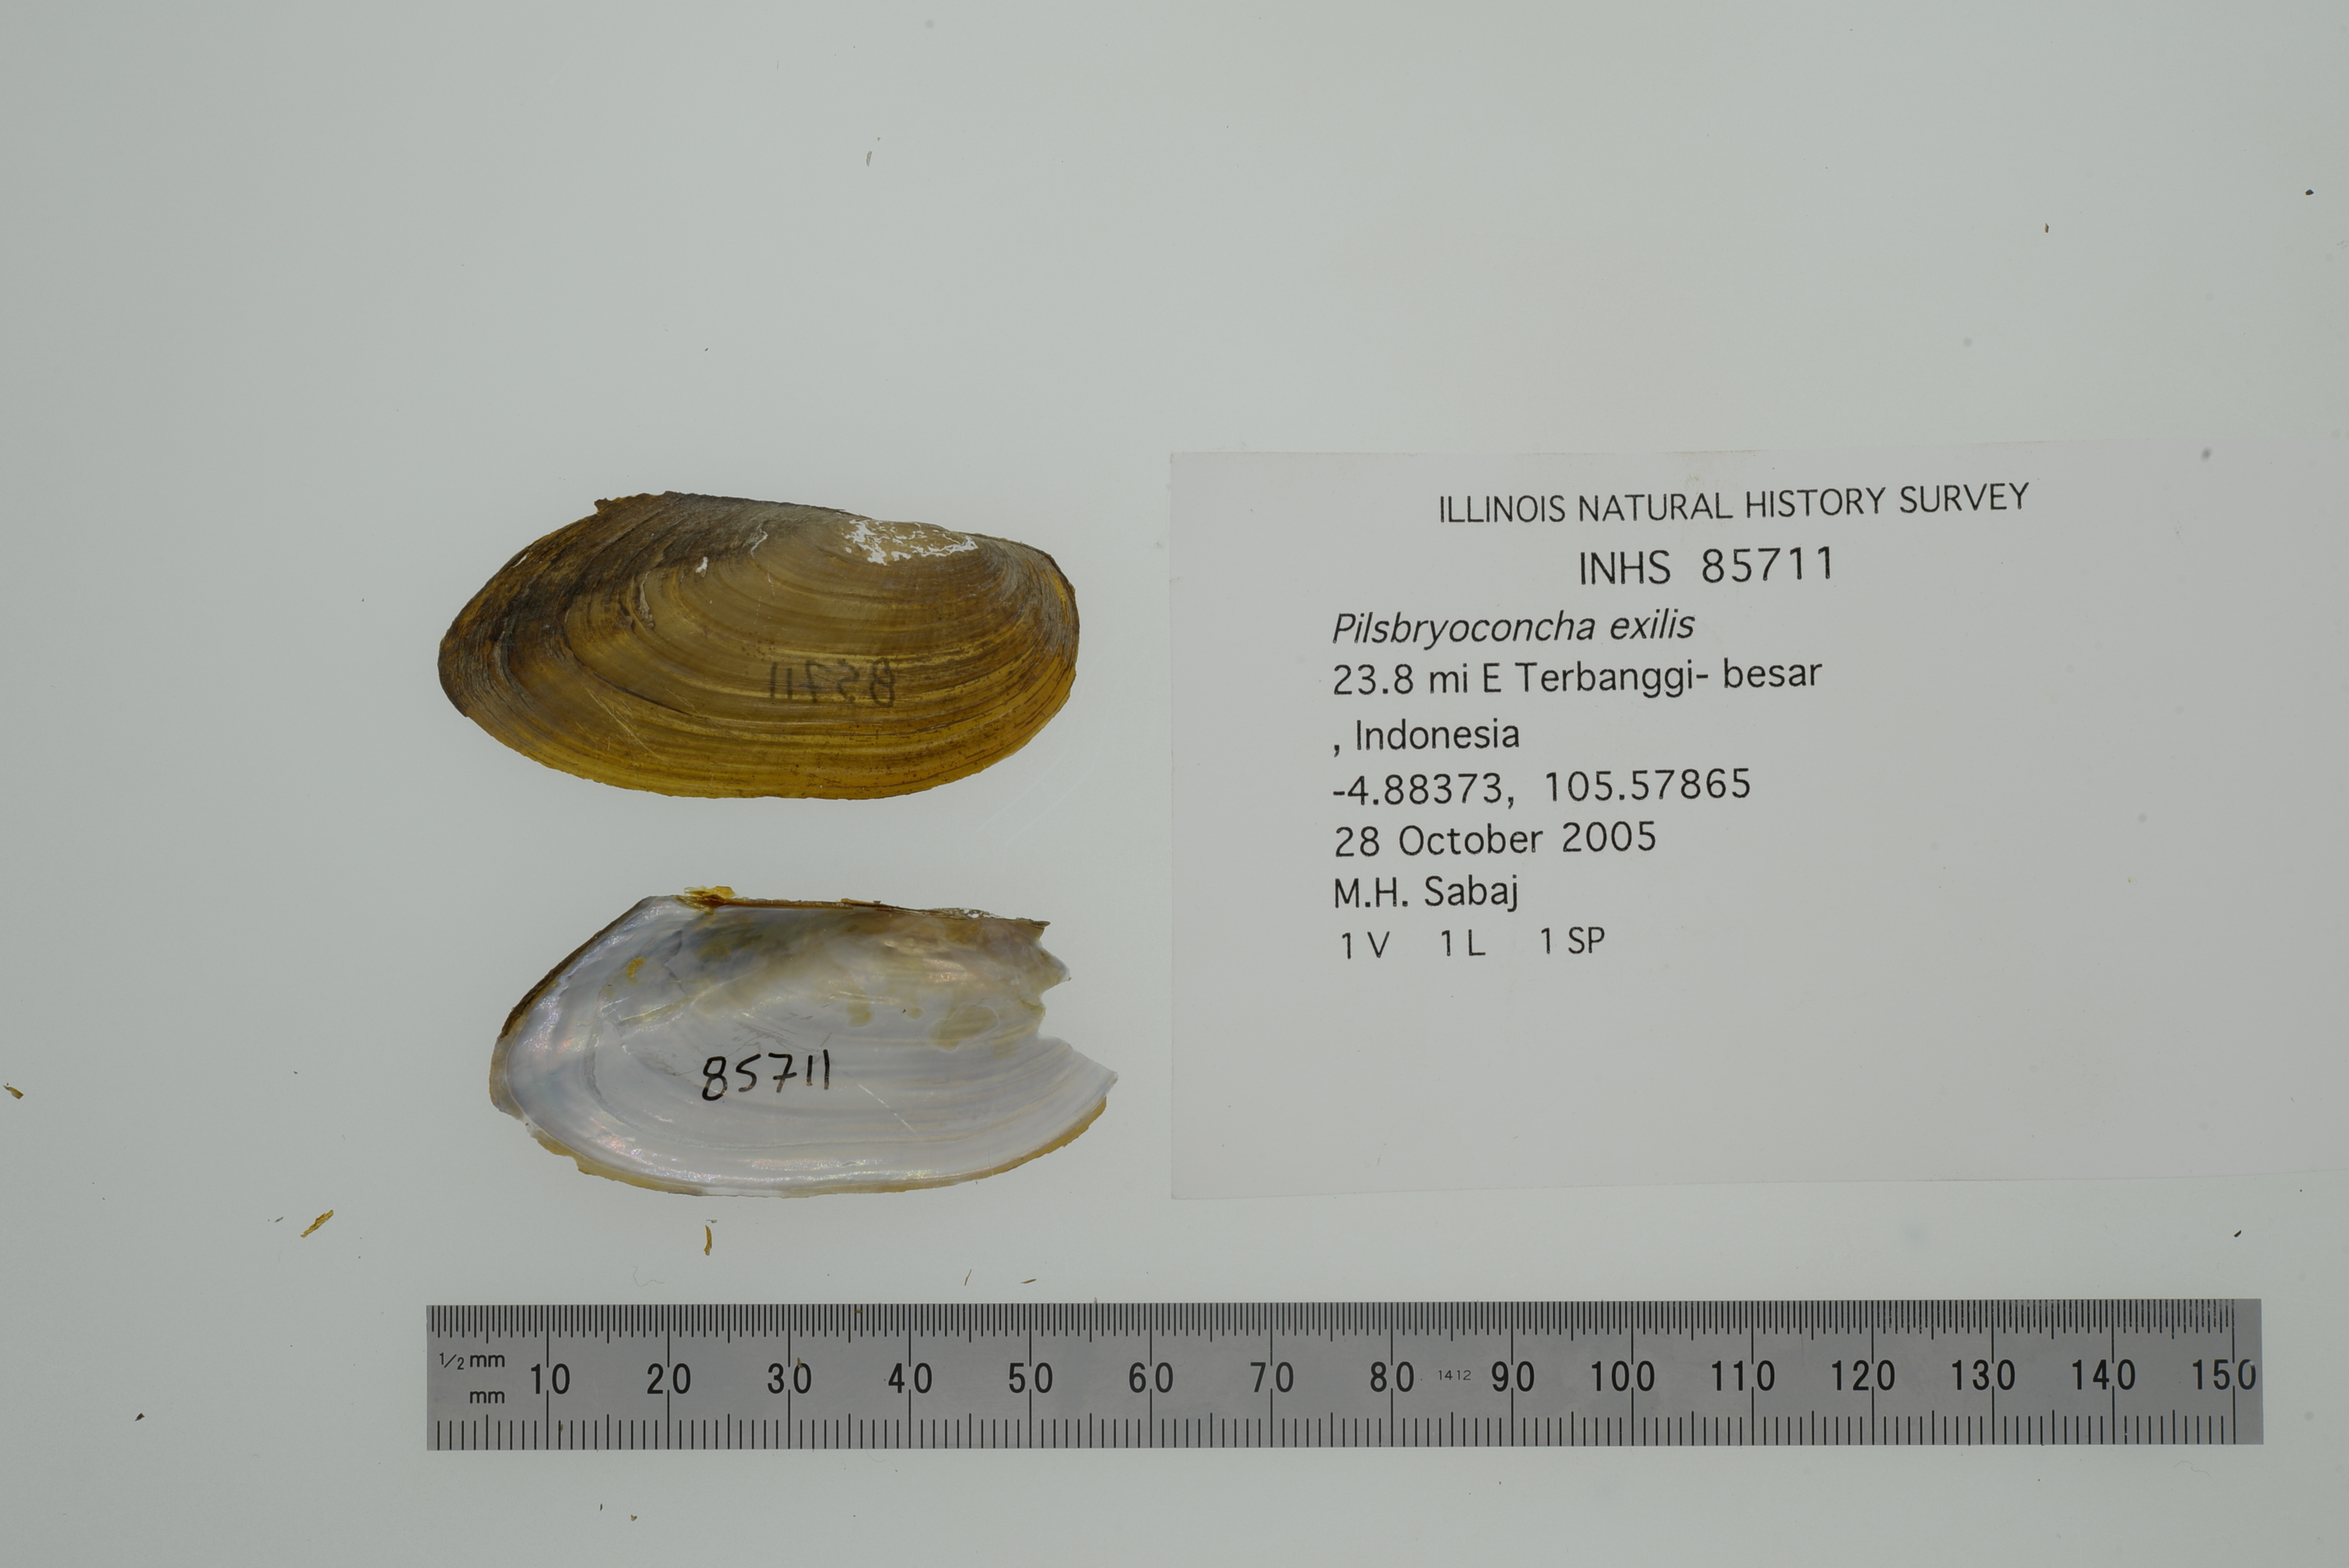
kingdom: Animalia
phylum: Mollusca
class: Bivalvia
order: Unionida
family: Unionidae
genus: Pilsbryoconcha
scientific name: Pilsbryoconcha exilis
